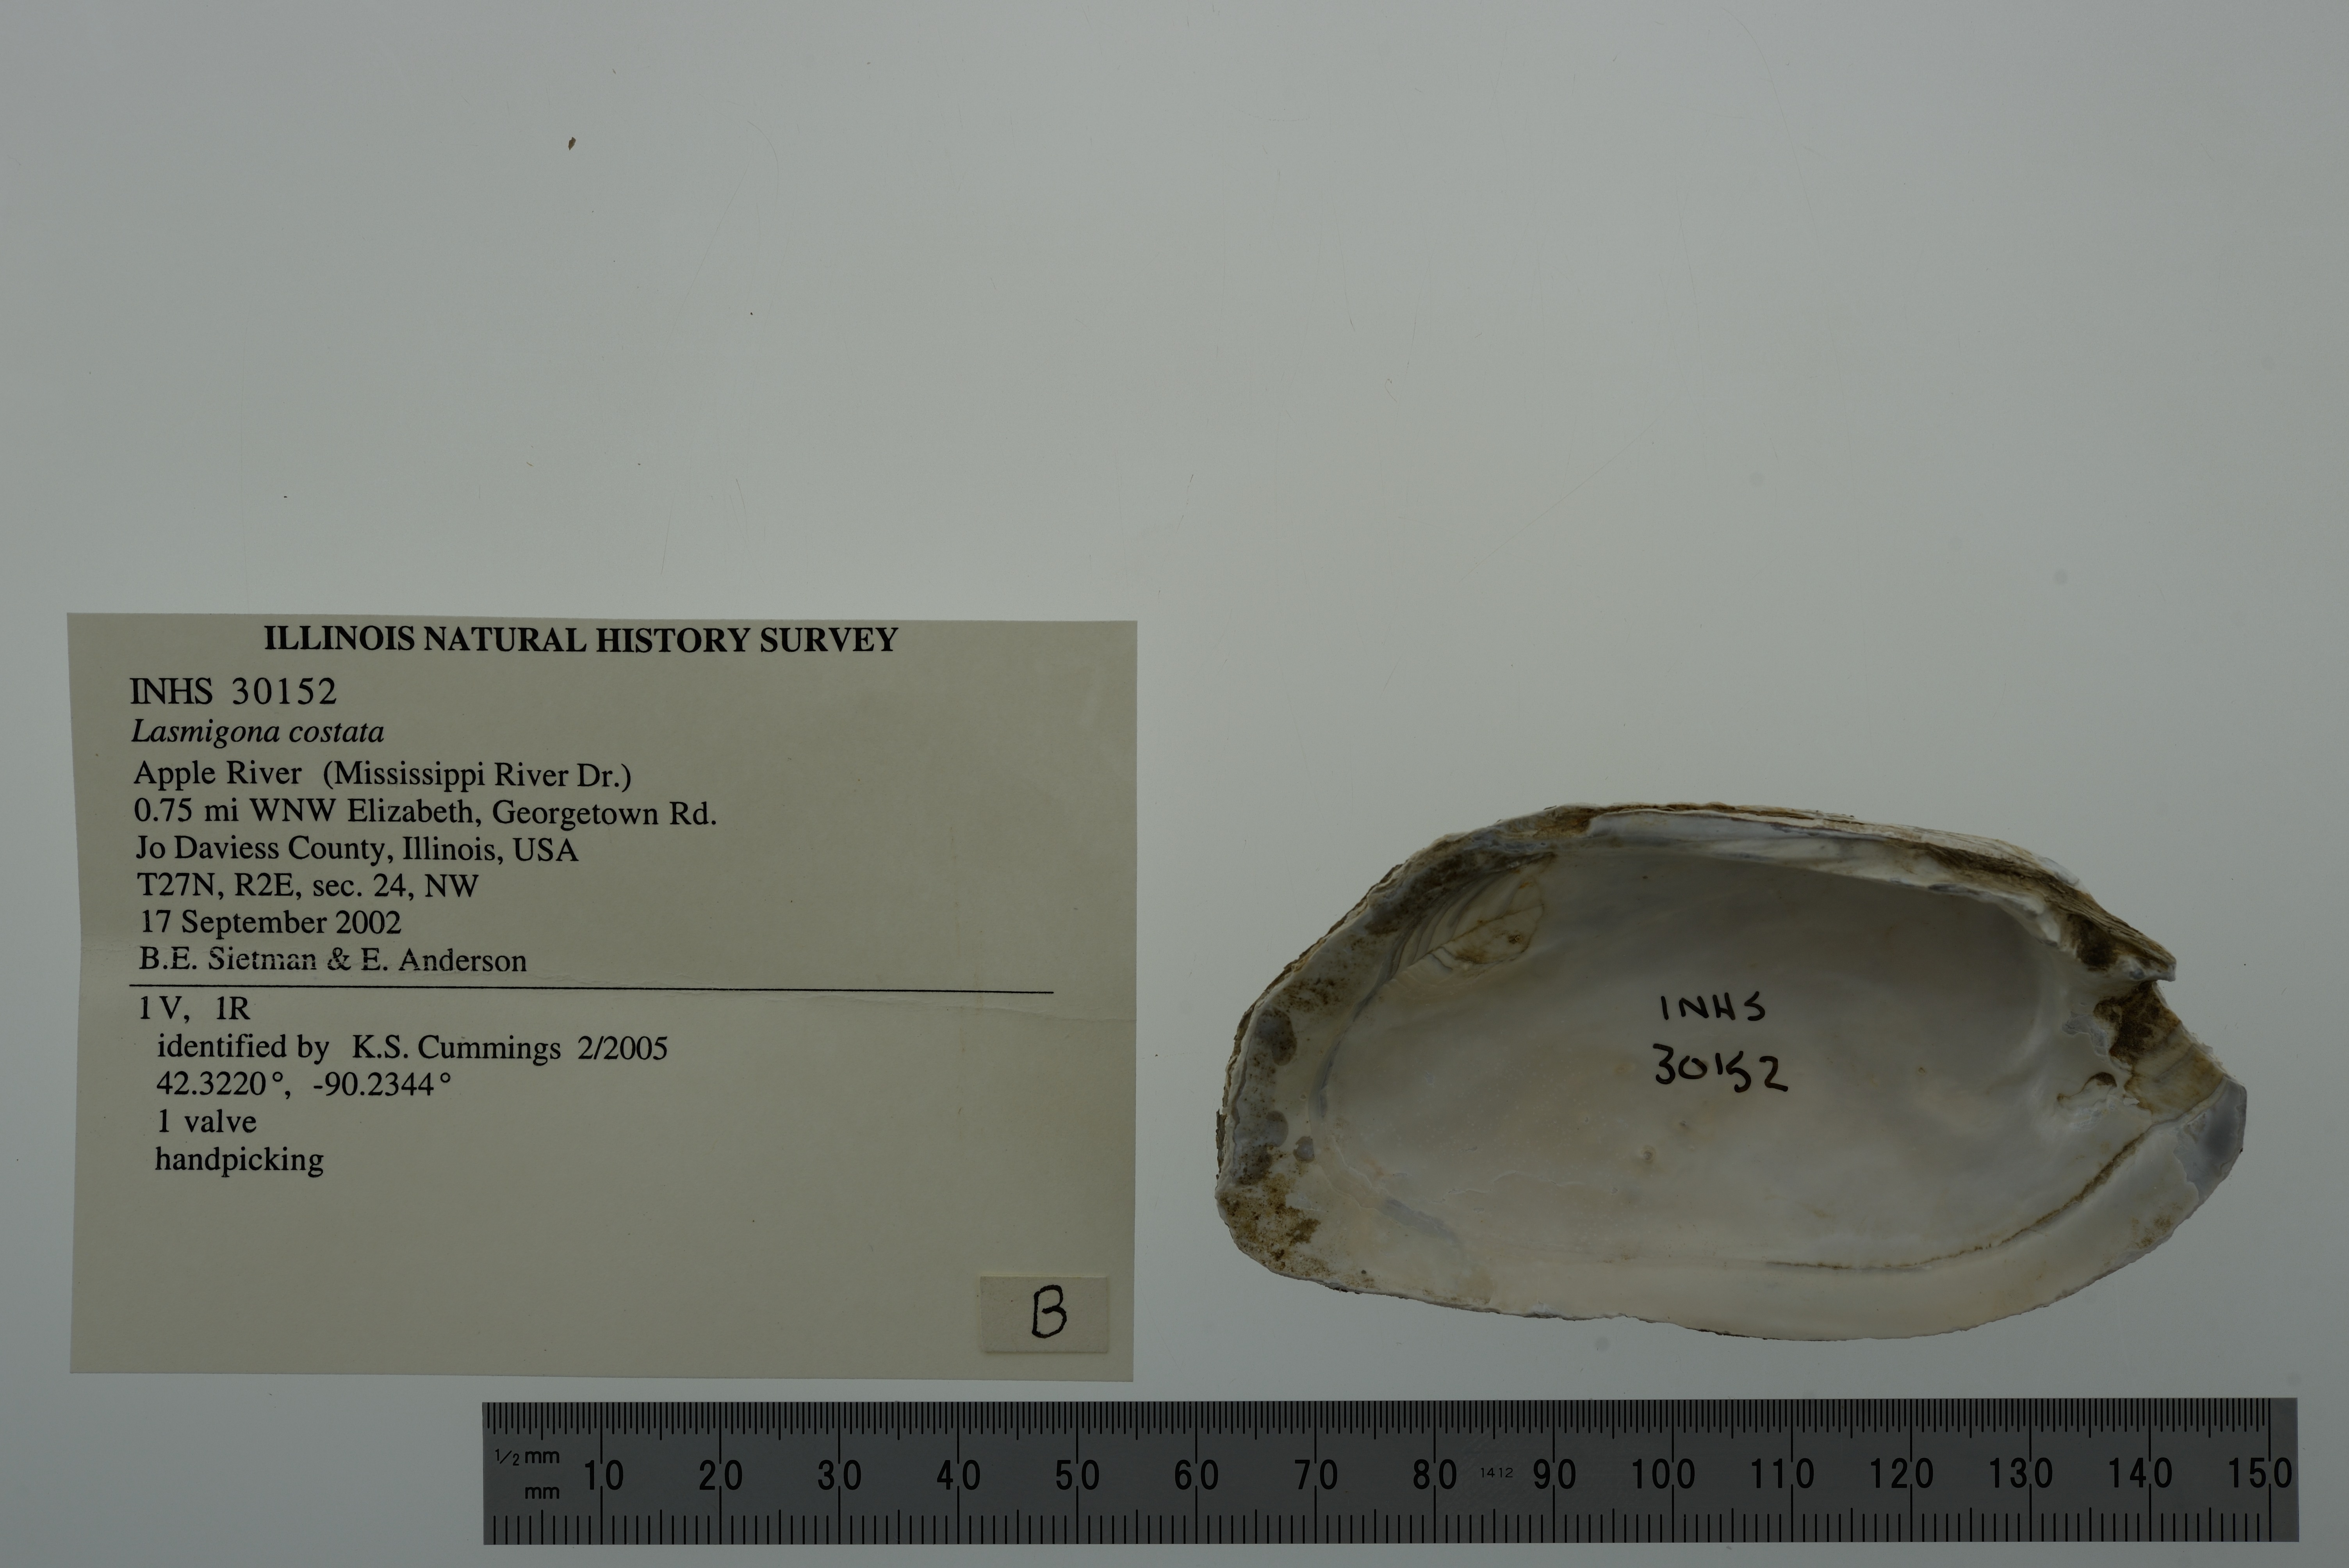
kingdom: Animalia
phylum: Mollusca
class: Bivalvia
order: Unionida
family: Unionidae
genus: Lasmigona
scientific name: Lasmigona costata
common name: Flutedshell
